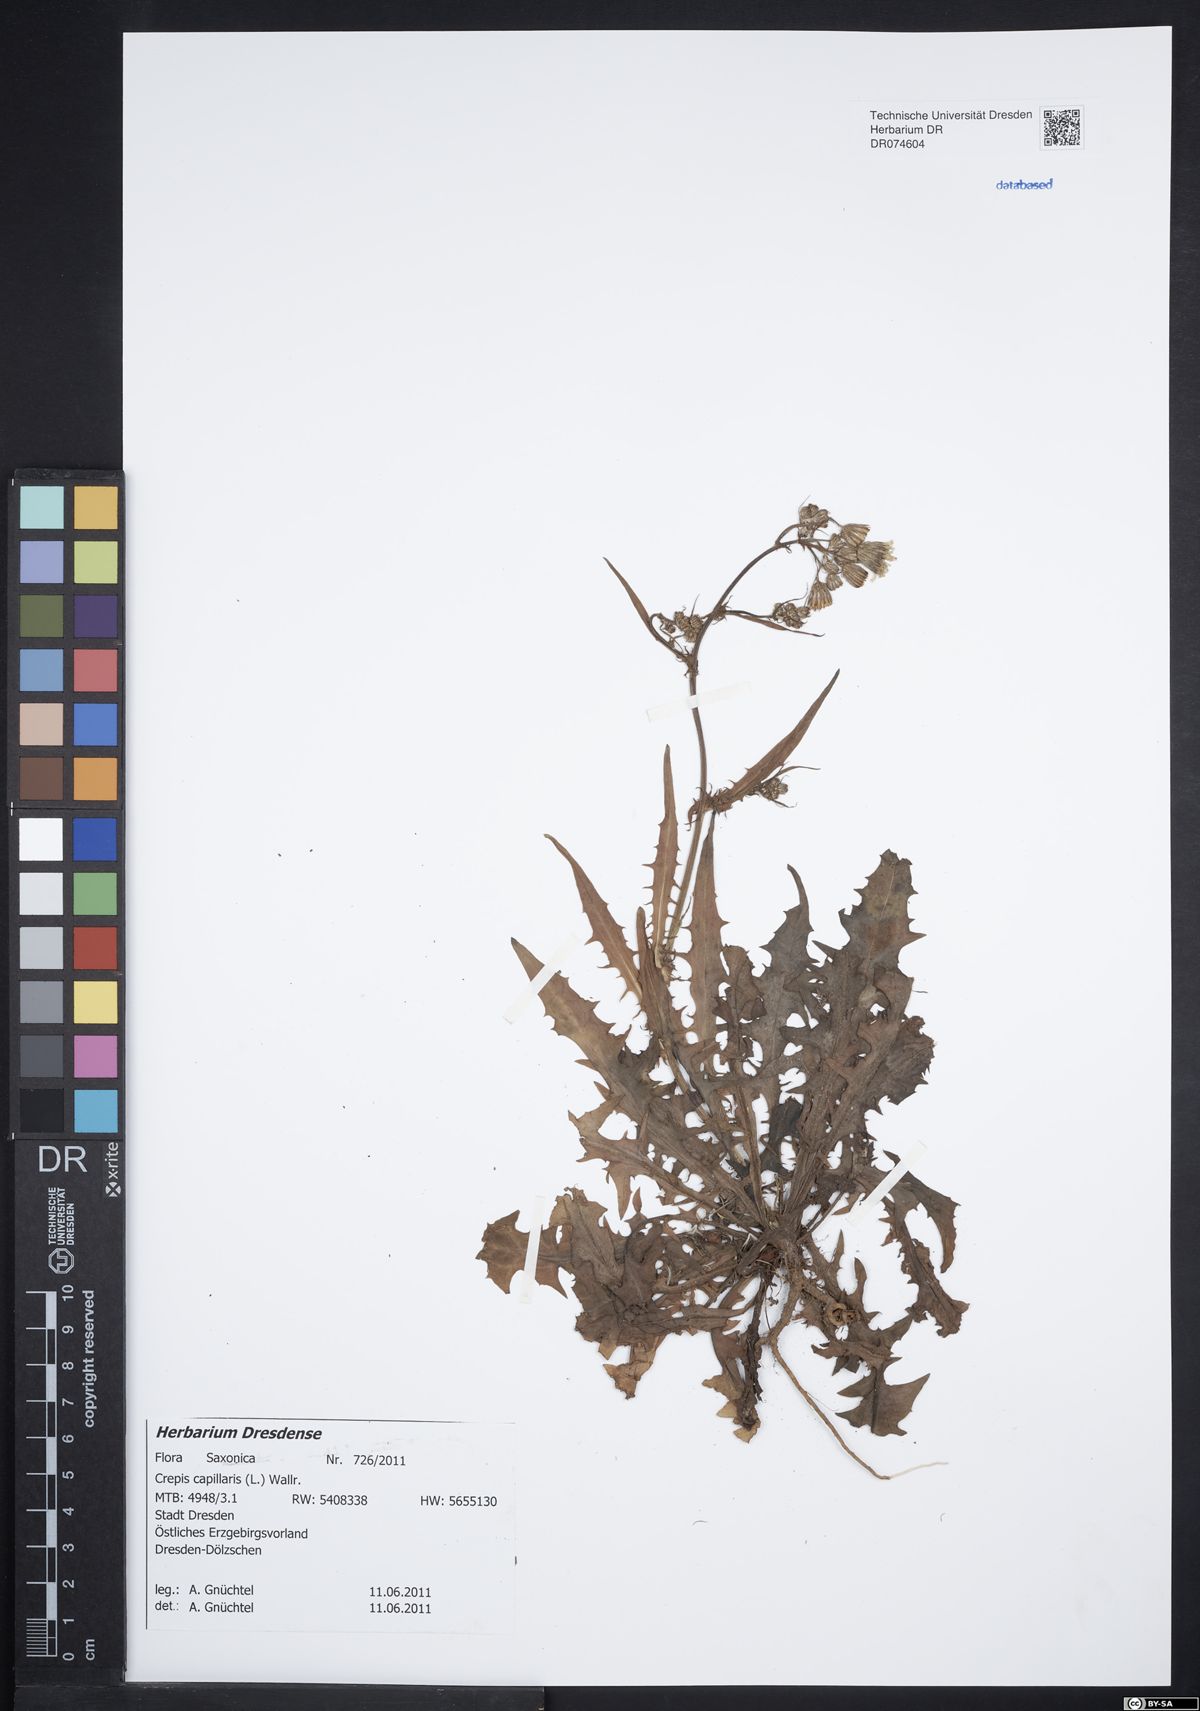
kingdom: Plantae
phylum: Tracheophyta
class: Magnoliopsida
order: Asterales
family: Asteraceae
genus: Crepis
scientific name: Crepis capillaris
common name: Smooth hawksbeard
